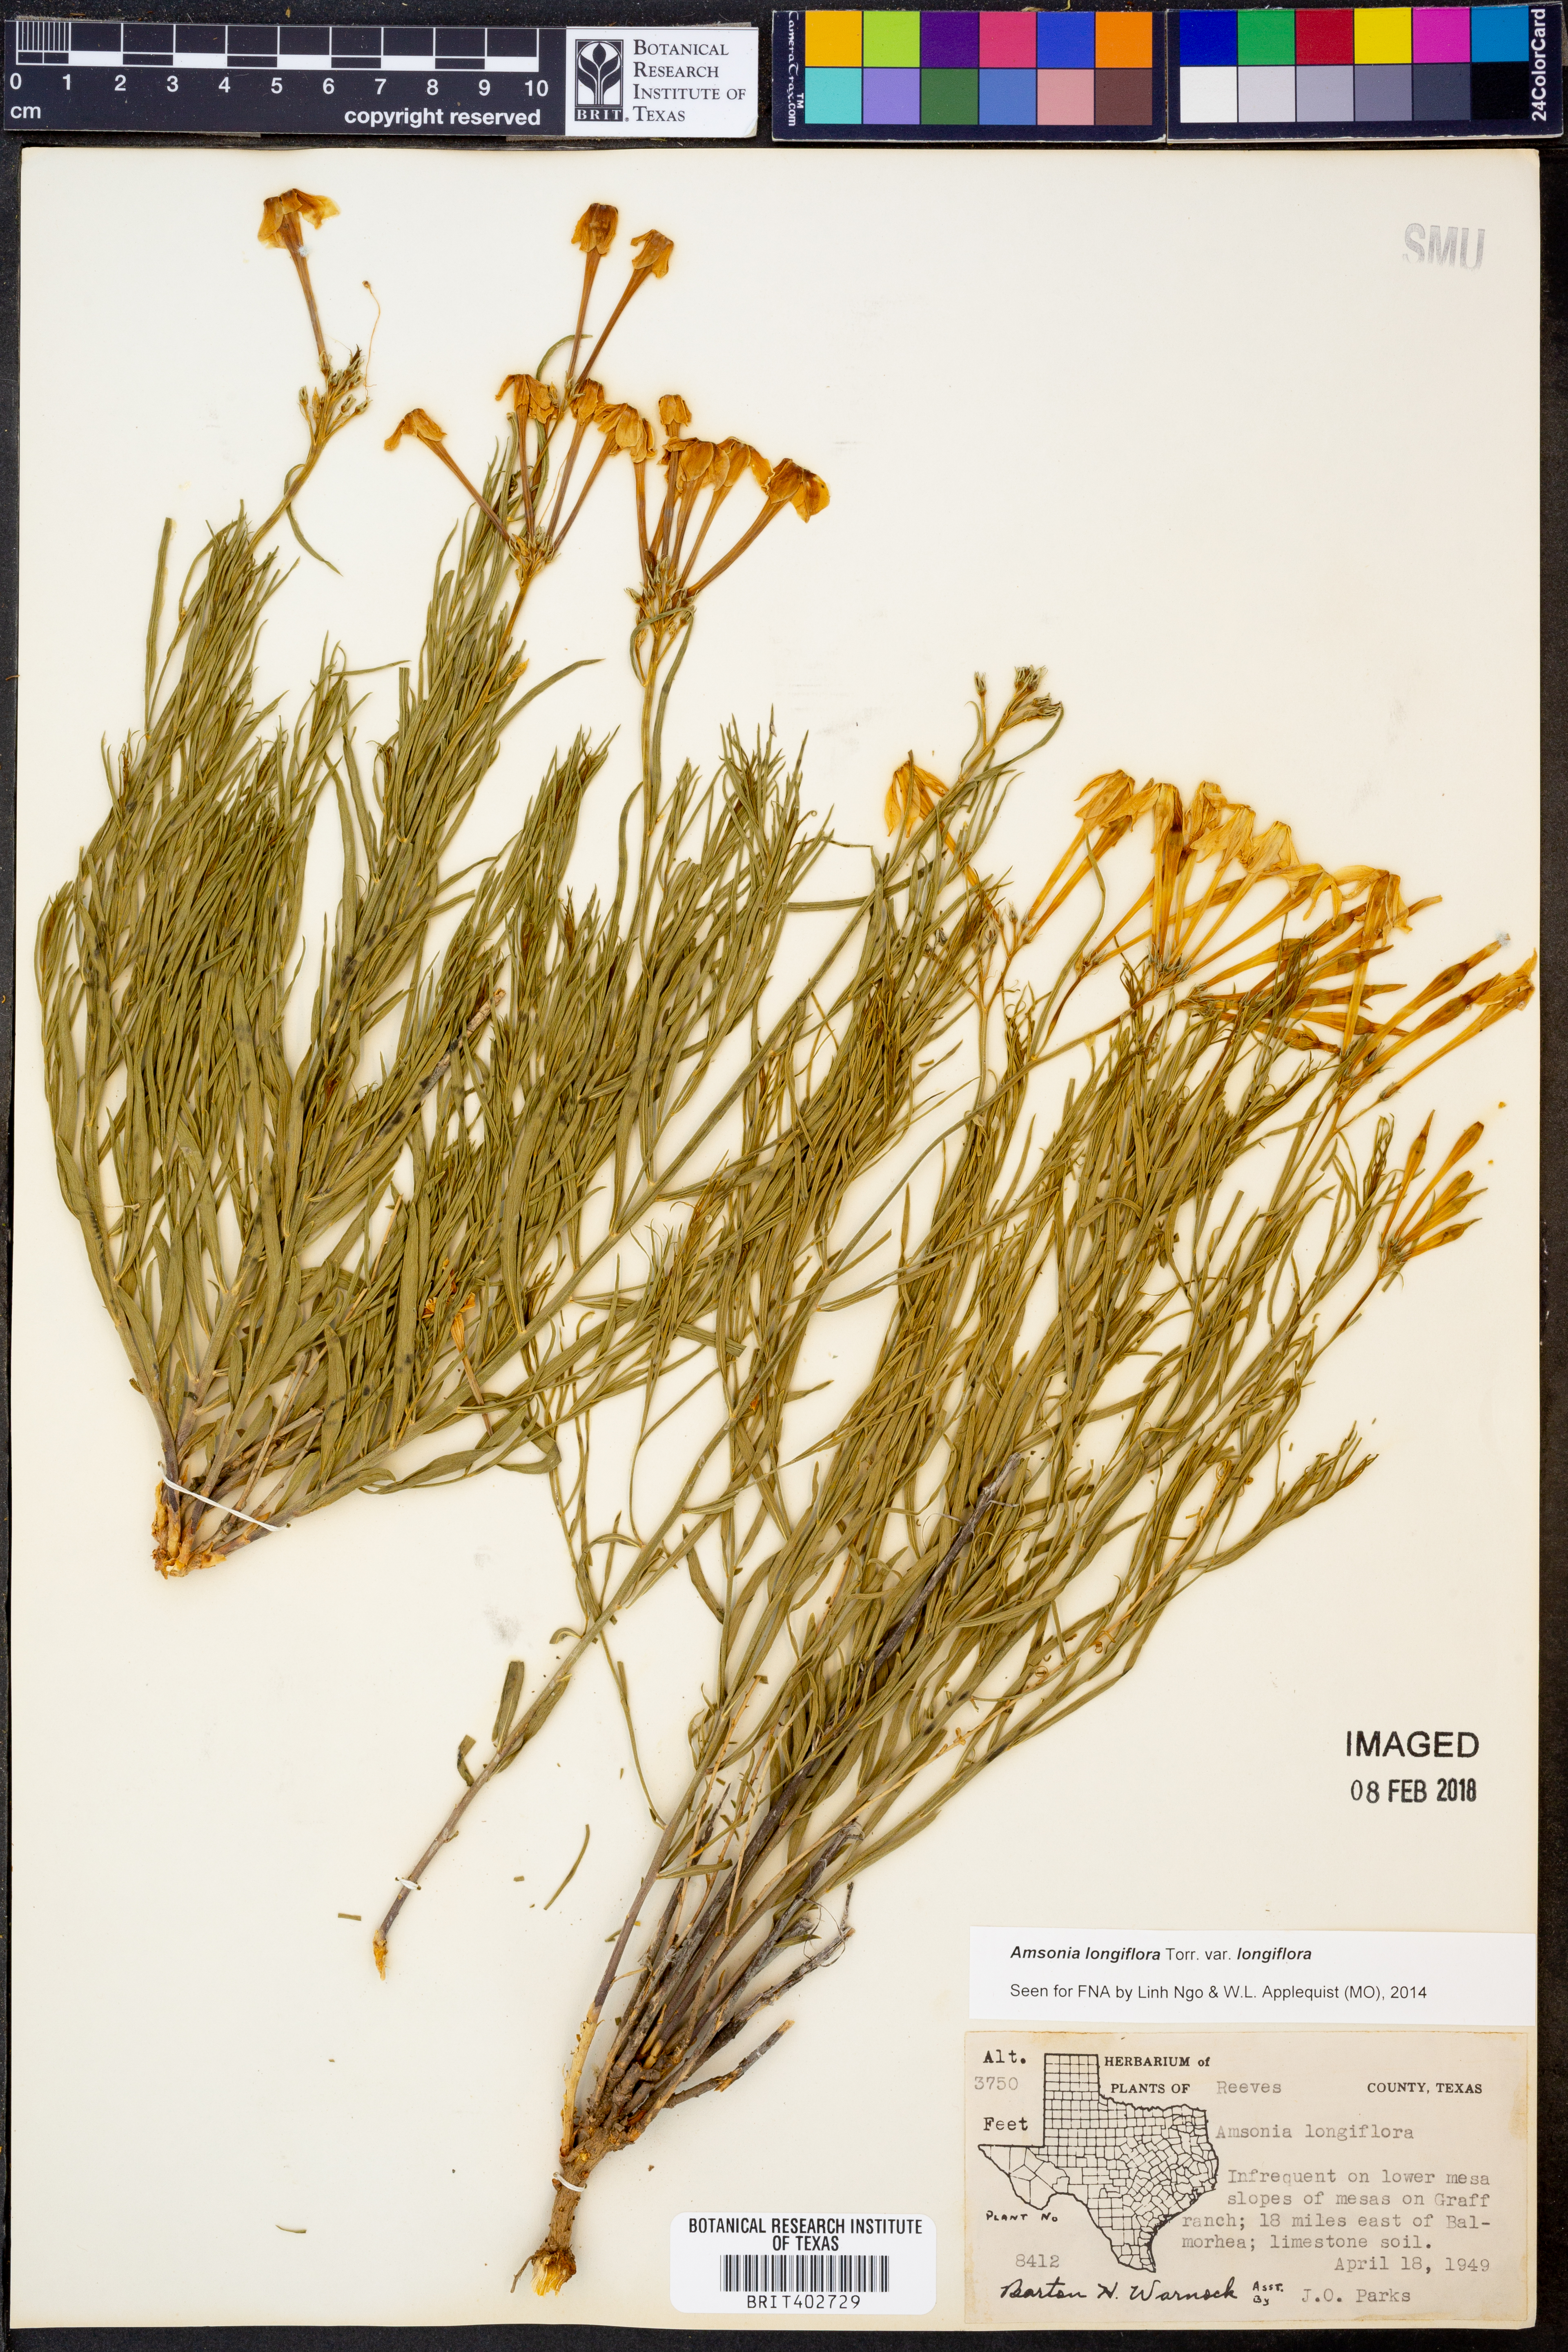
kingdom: Plantae
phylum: Tracheophyta
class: Magnoliopsida
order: Gentianales
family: Apocynaceae
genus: Amsonia
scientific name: Amsonia longiflora
